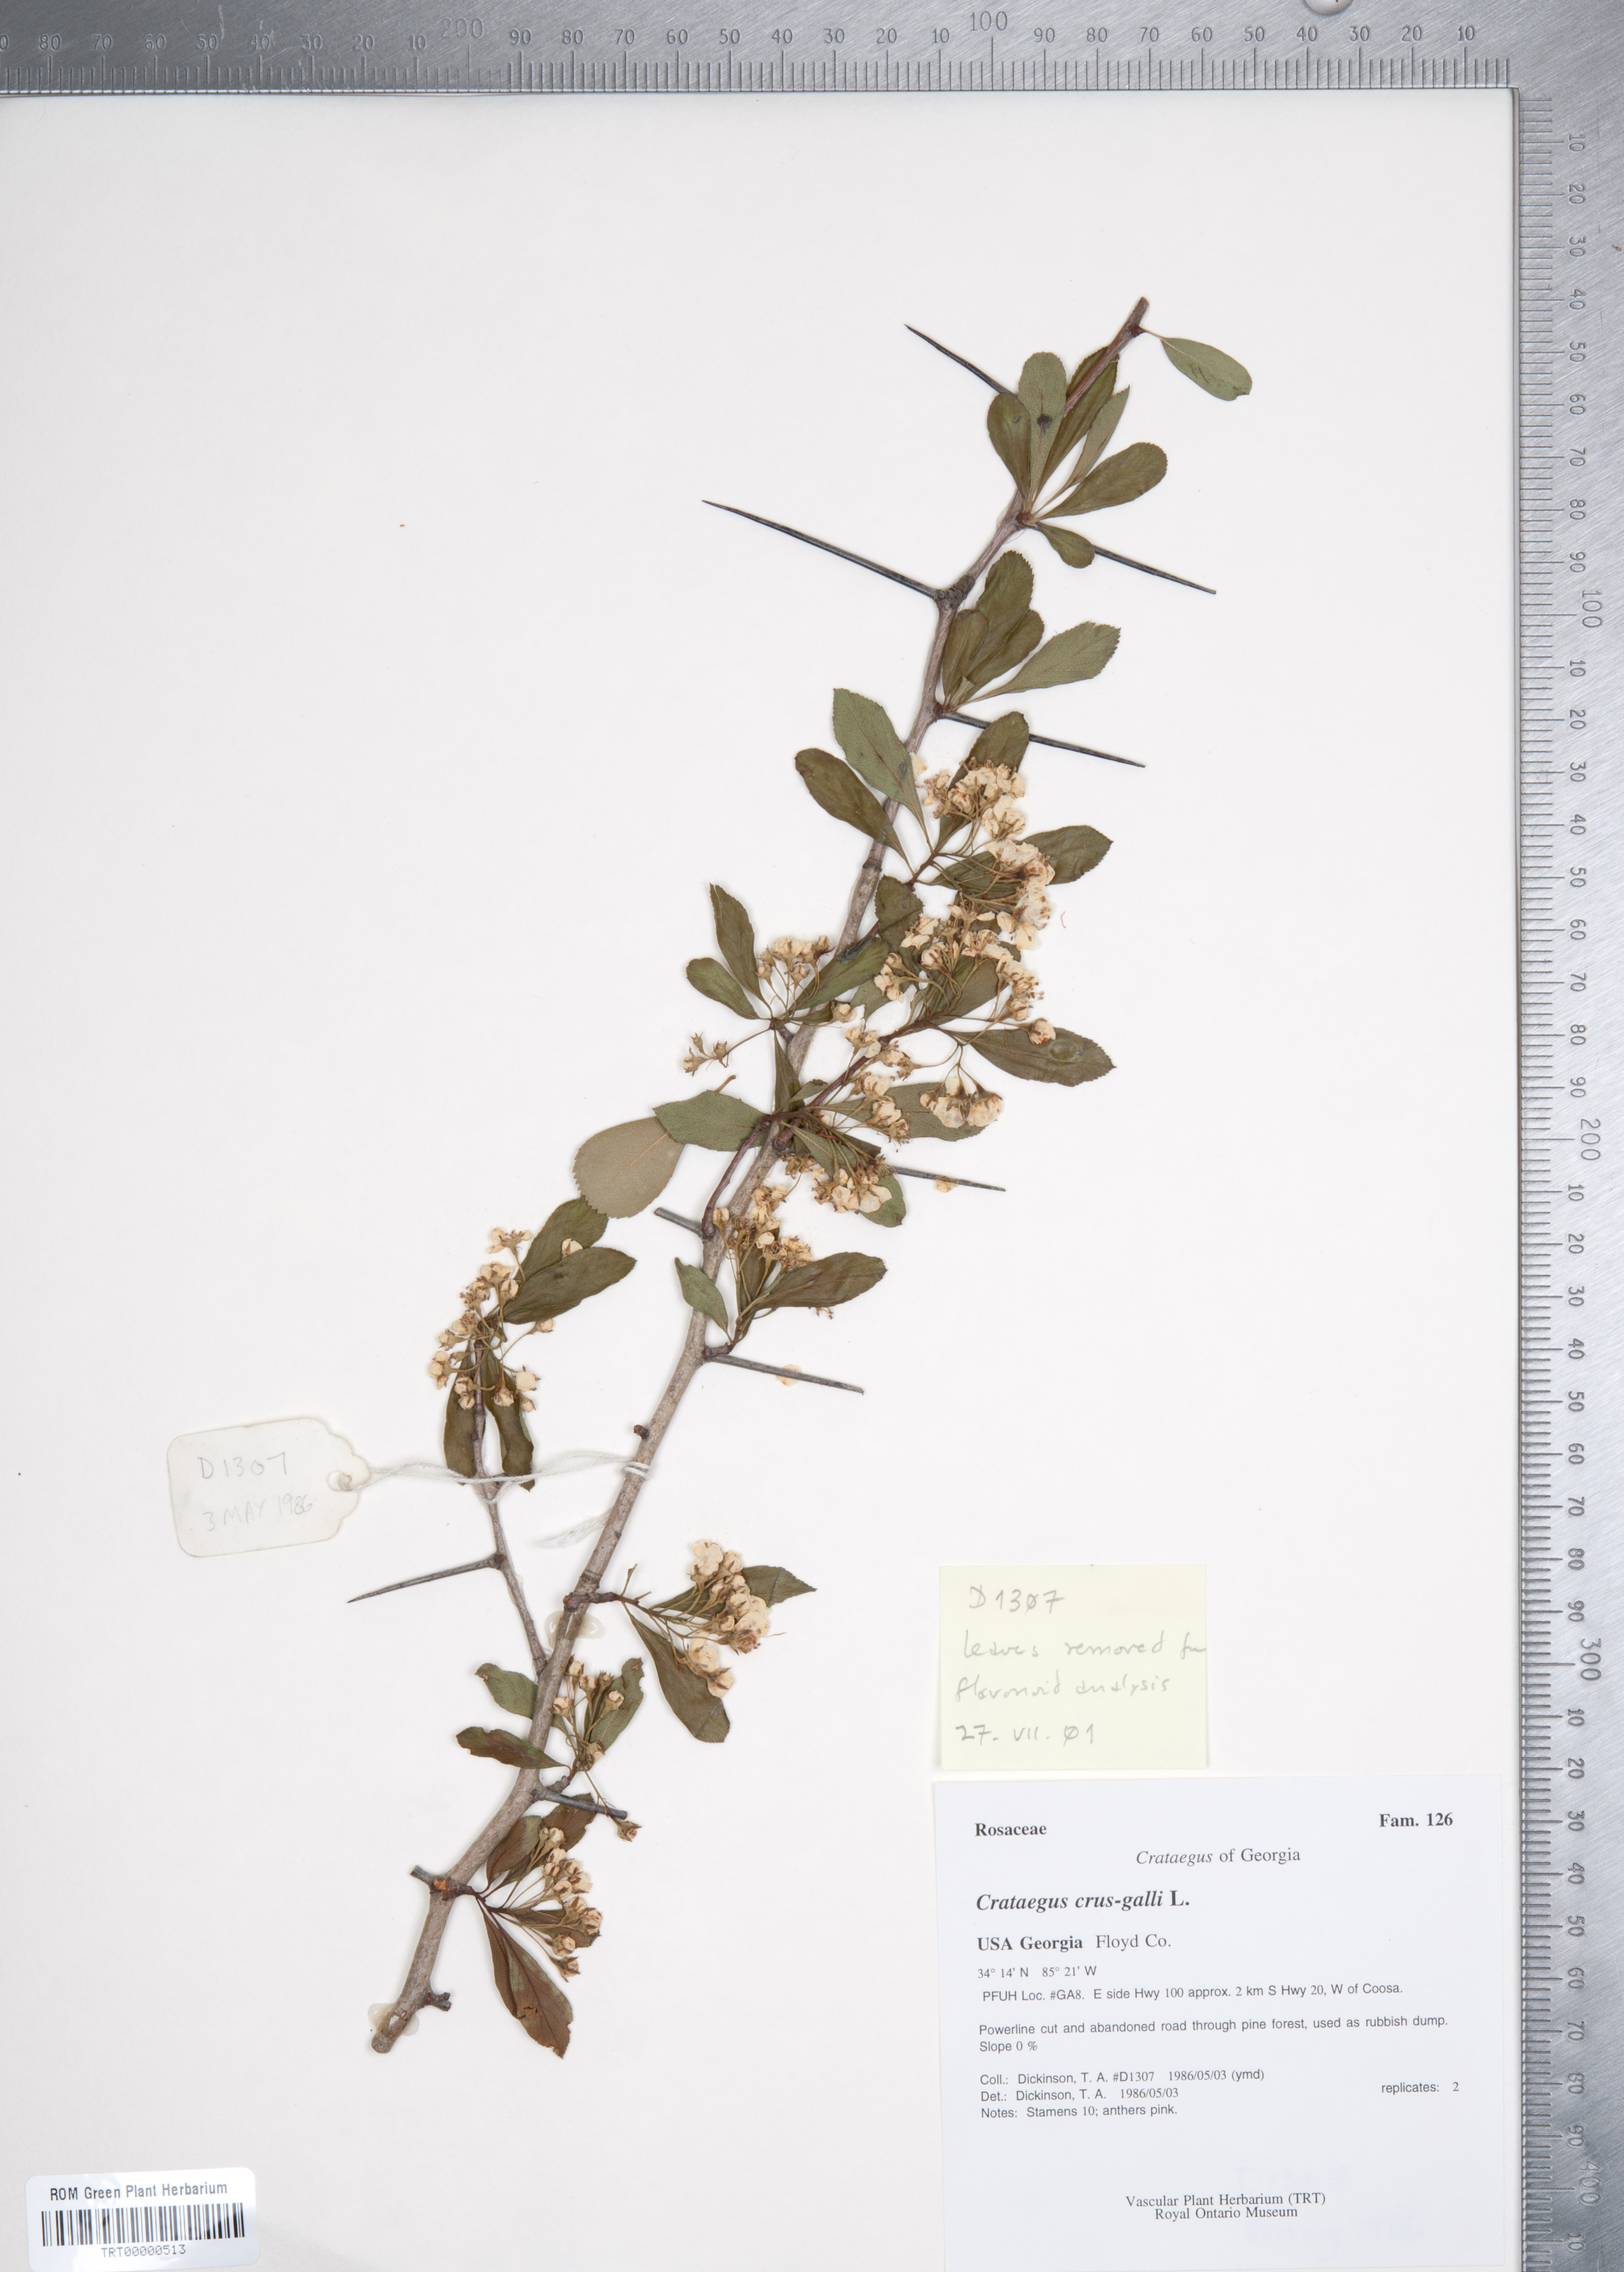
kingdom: Plantae
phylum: Tracheophyta
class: Magnoliopsida
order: Rosales
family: Rosaceae
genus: Crataegus
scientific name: Crataegus crus-galli
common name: Cockspurthorn
